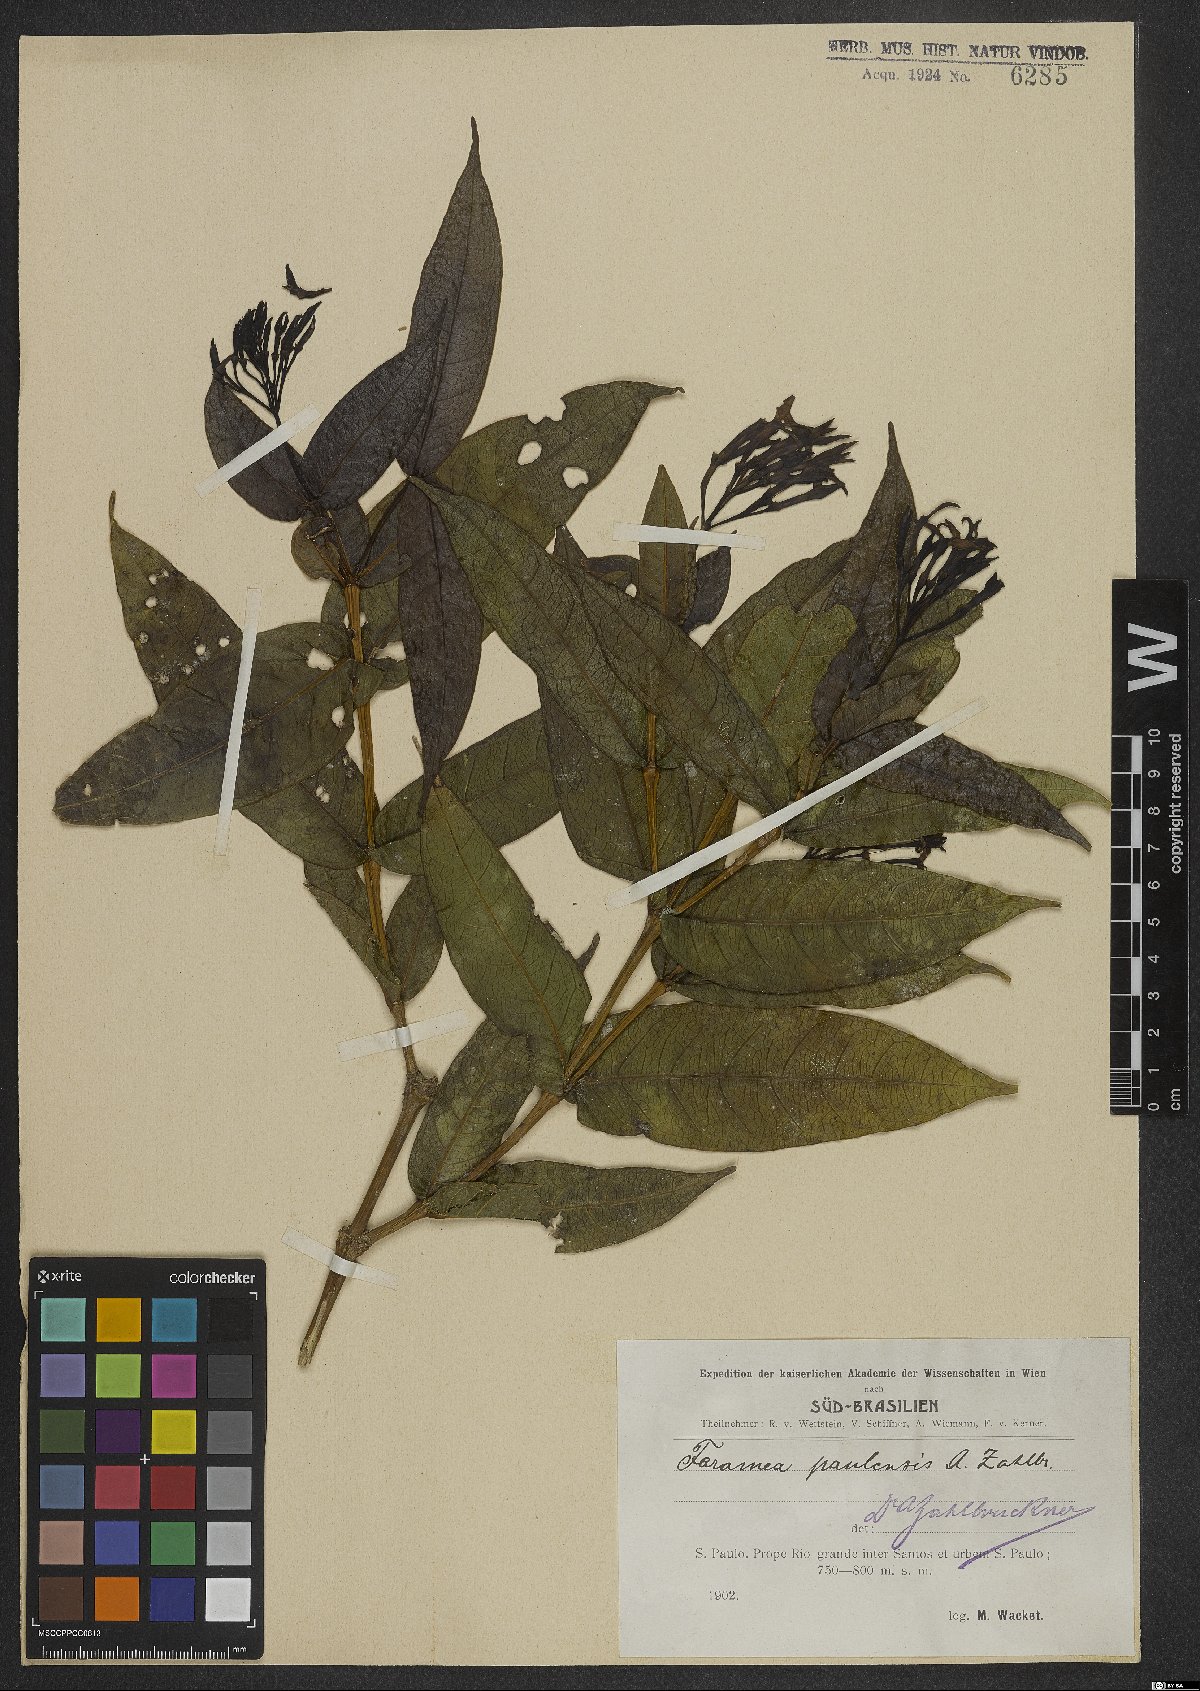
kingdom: Plantae
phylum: Tracheophyta
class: Magnoliopsida
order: Gentianales
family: Rubiaceae
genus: Faramea
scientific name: Faramea tetragona
